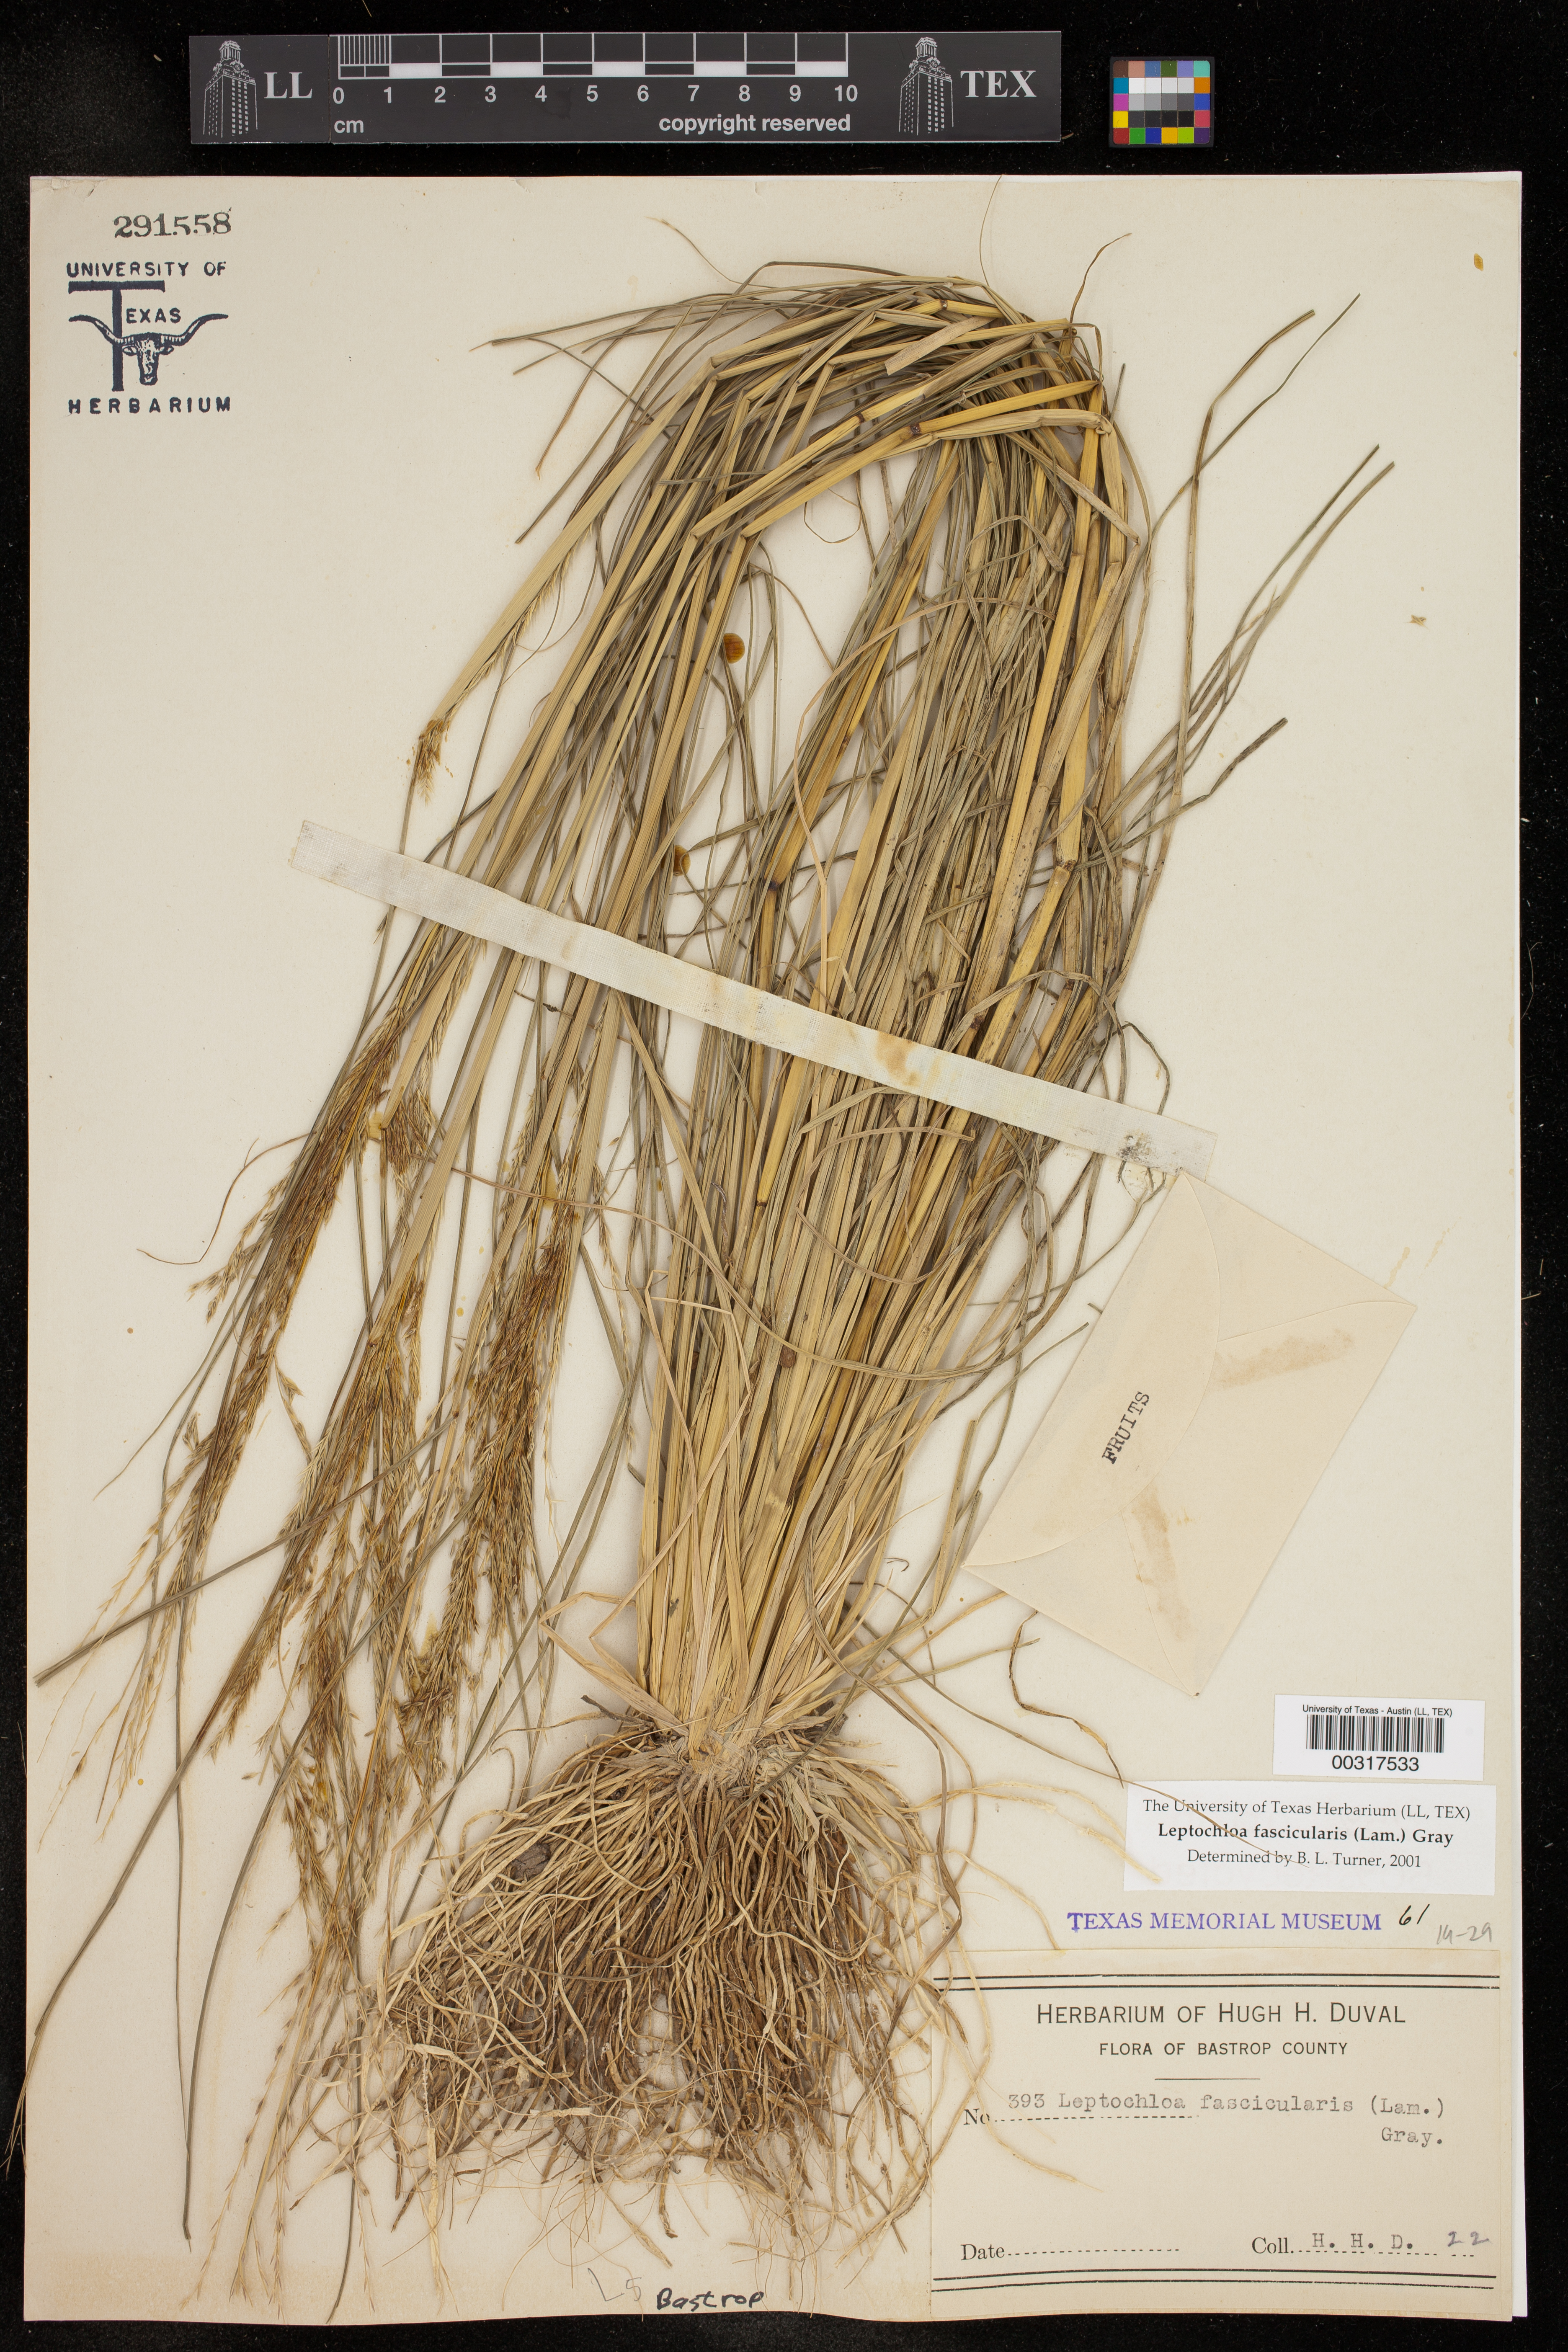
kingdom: Plantae
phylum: Tracheophyta
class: Liliopsida
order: Poales
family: Poaceae
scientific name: Poaceae
